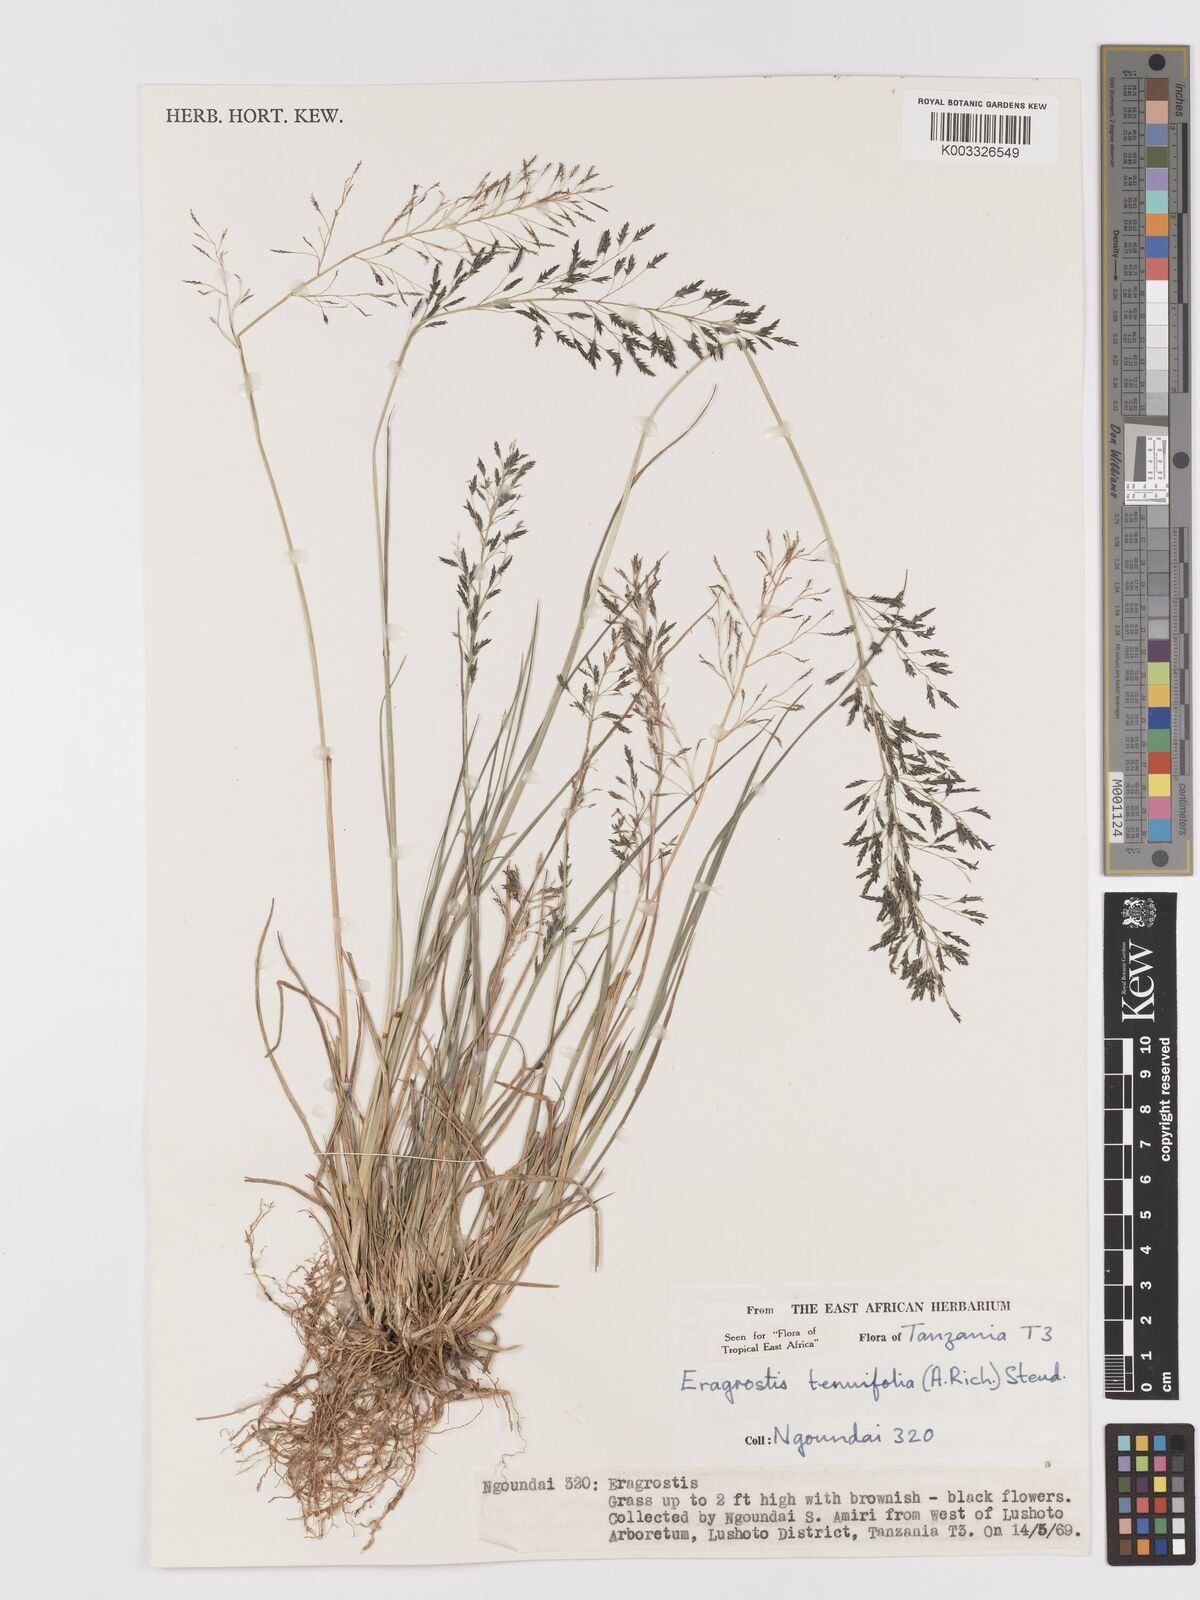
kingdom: Plantae
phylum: Tracheophyta
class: Liliopsida
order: Poales
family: Poaceae
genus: Eragrostis
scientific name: Eragrostis tenuifolia
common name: Elastic grass
